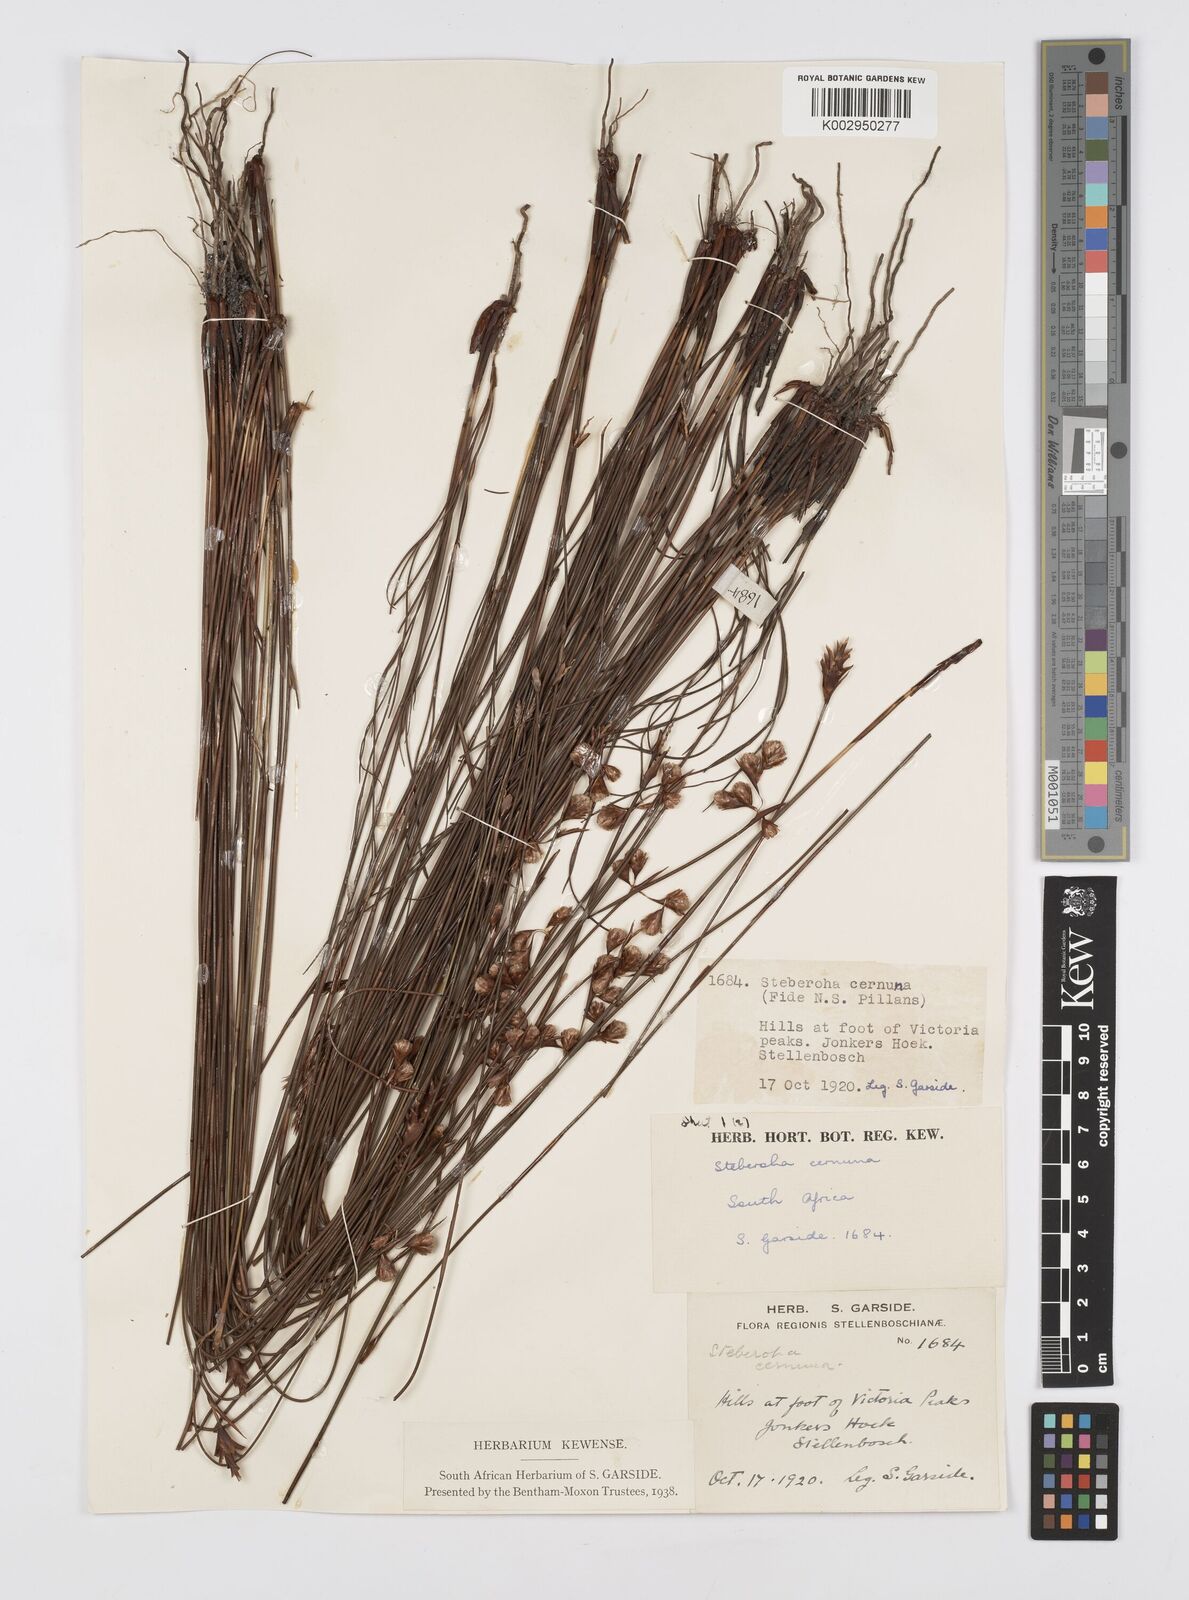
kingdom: Plantae
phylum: Tracheophyta
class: Liliopsida
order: Poales
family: Restionaceae
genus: Staberoha
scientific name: Staberoha cernua
